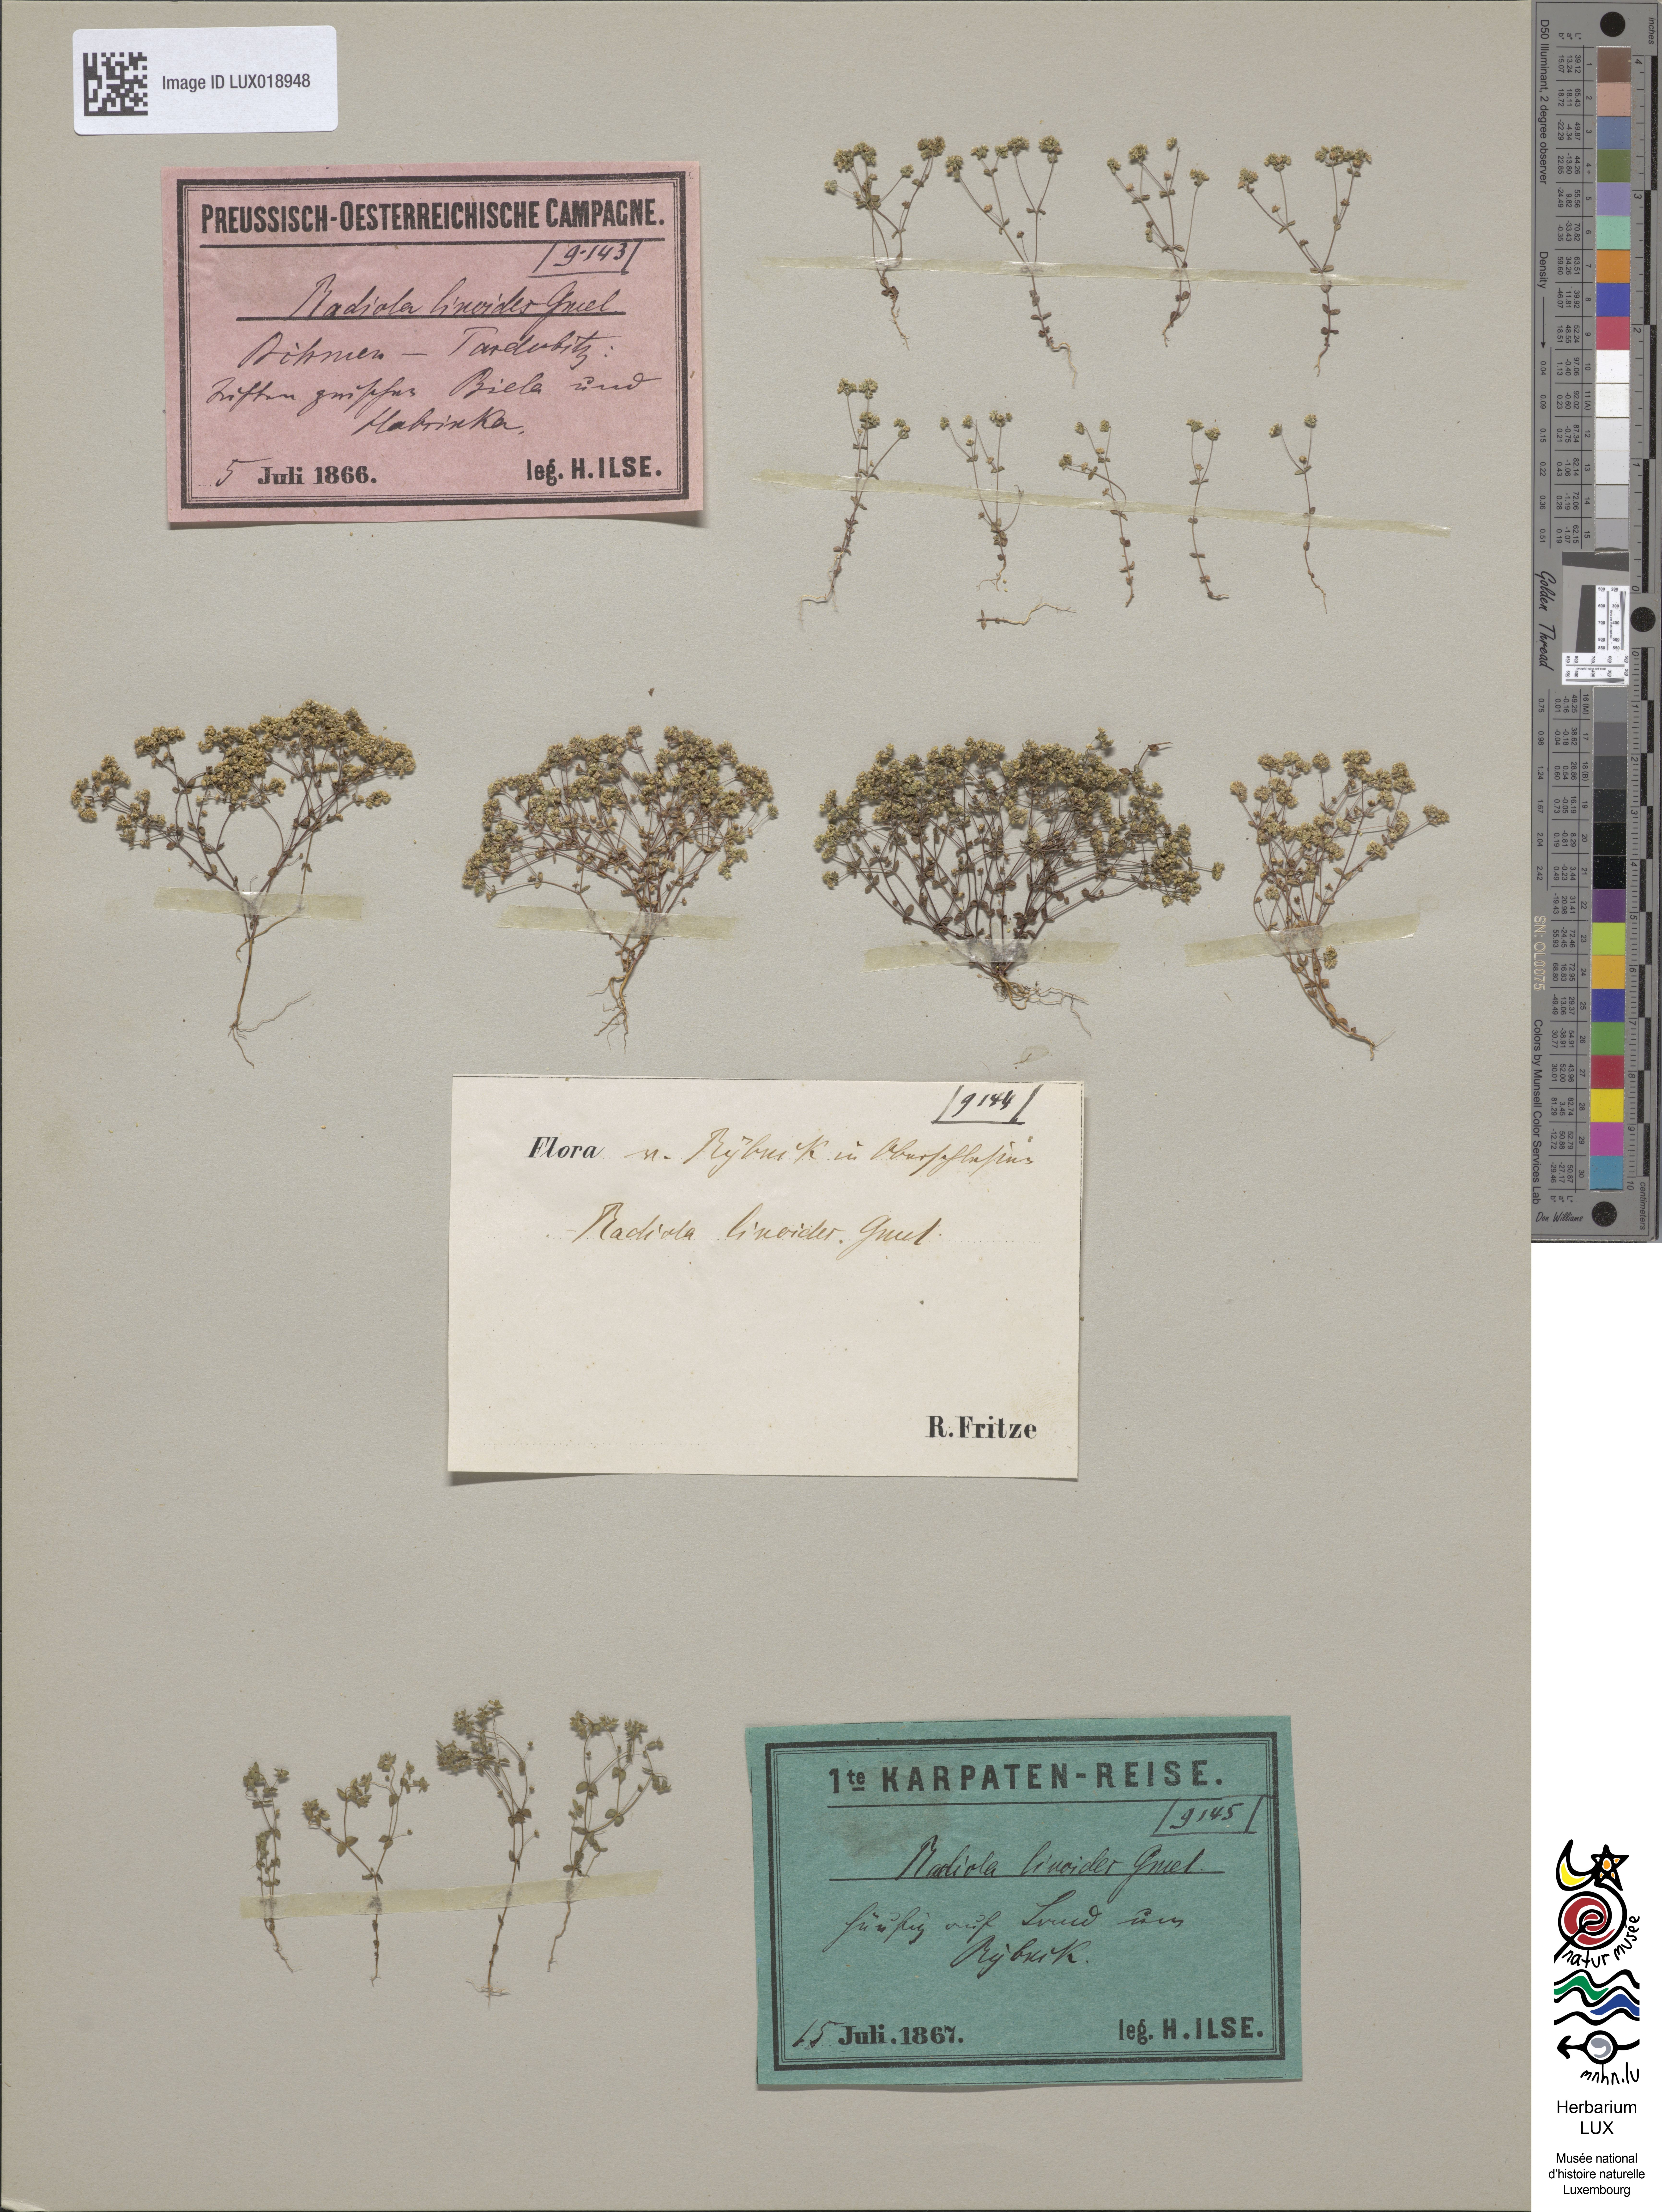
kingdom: Plantae
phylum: Tracheophyta
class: Magnoliopsida
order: Malpighiales
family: Linaceae
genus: Radiola
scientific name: Radiola linoides
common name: Allseed
